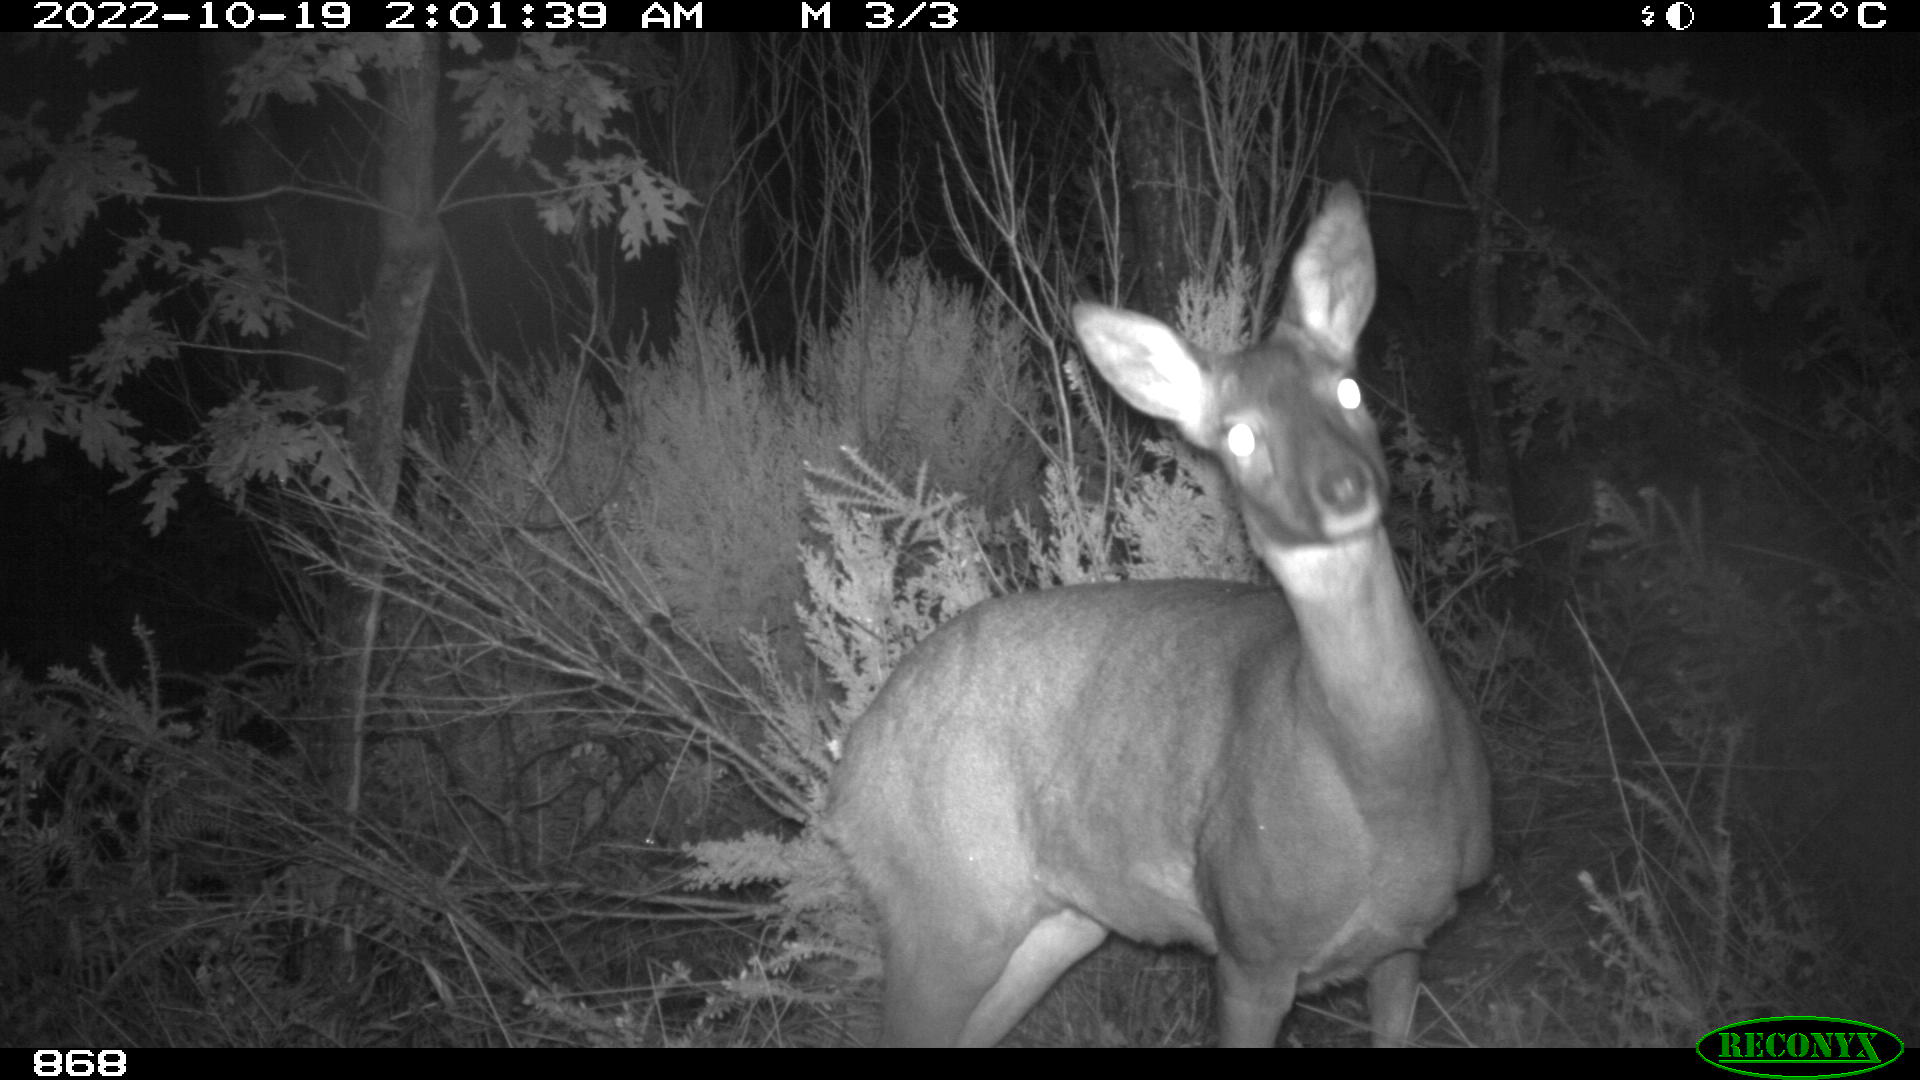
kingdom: Animalia
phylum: Chordata
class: Mammalia
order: Artiodactyla
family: Cervidae
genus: Capreolus
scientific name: Capreolus capreolus
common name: Western roe deer
